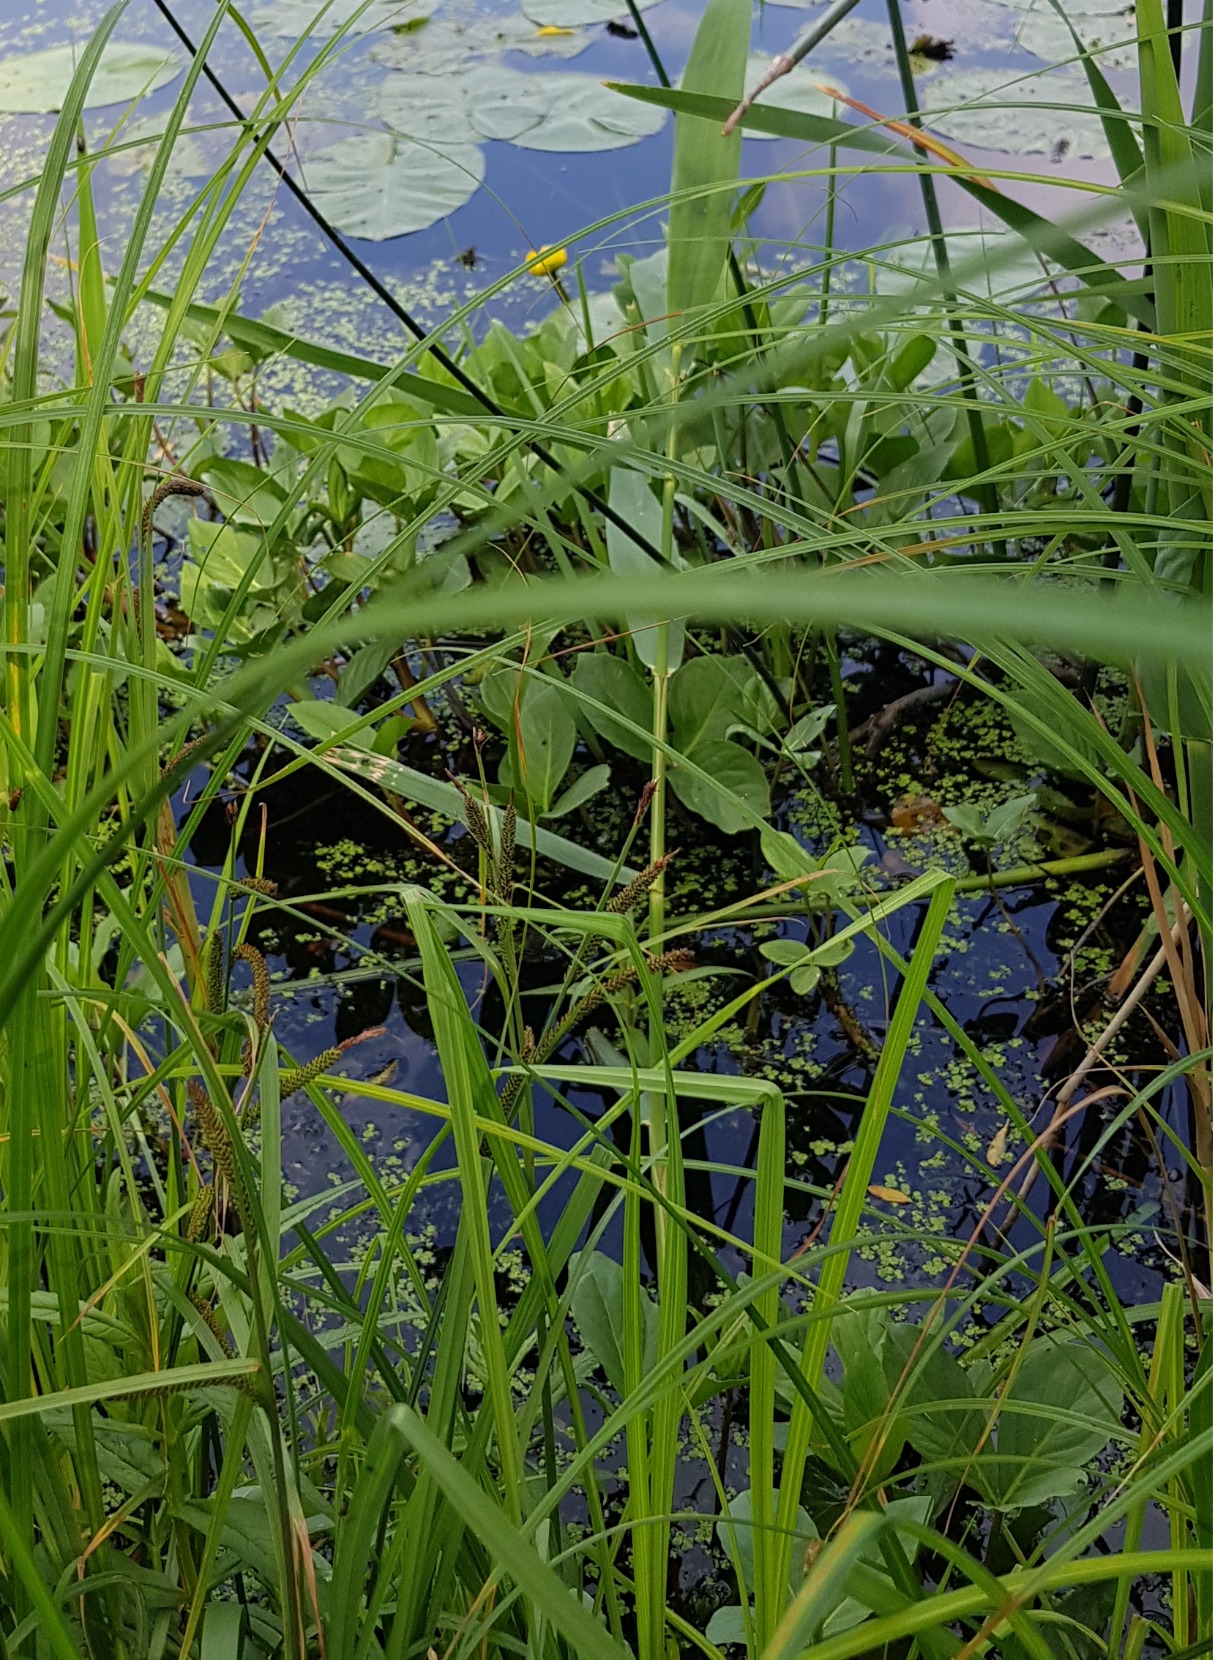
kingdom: Plantae
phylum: Tracheophyta
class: Magnoliopsida
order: Asterales
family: Menyanthaceae
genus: Menyanthes
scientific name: Menyanthes trifoliata
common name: Bukkeblad
